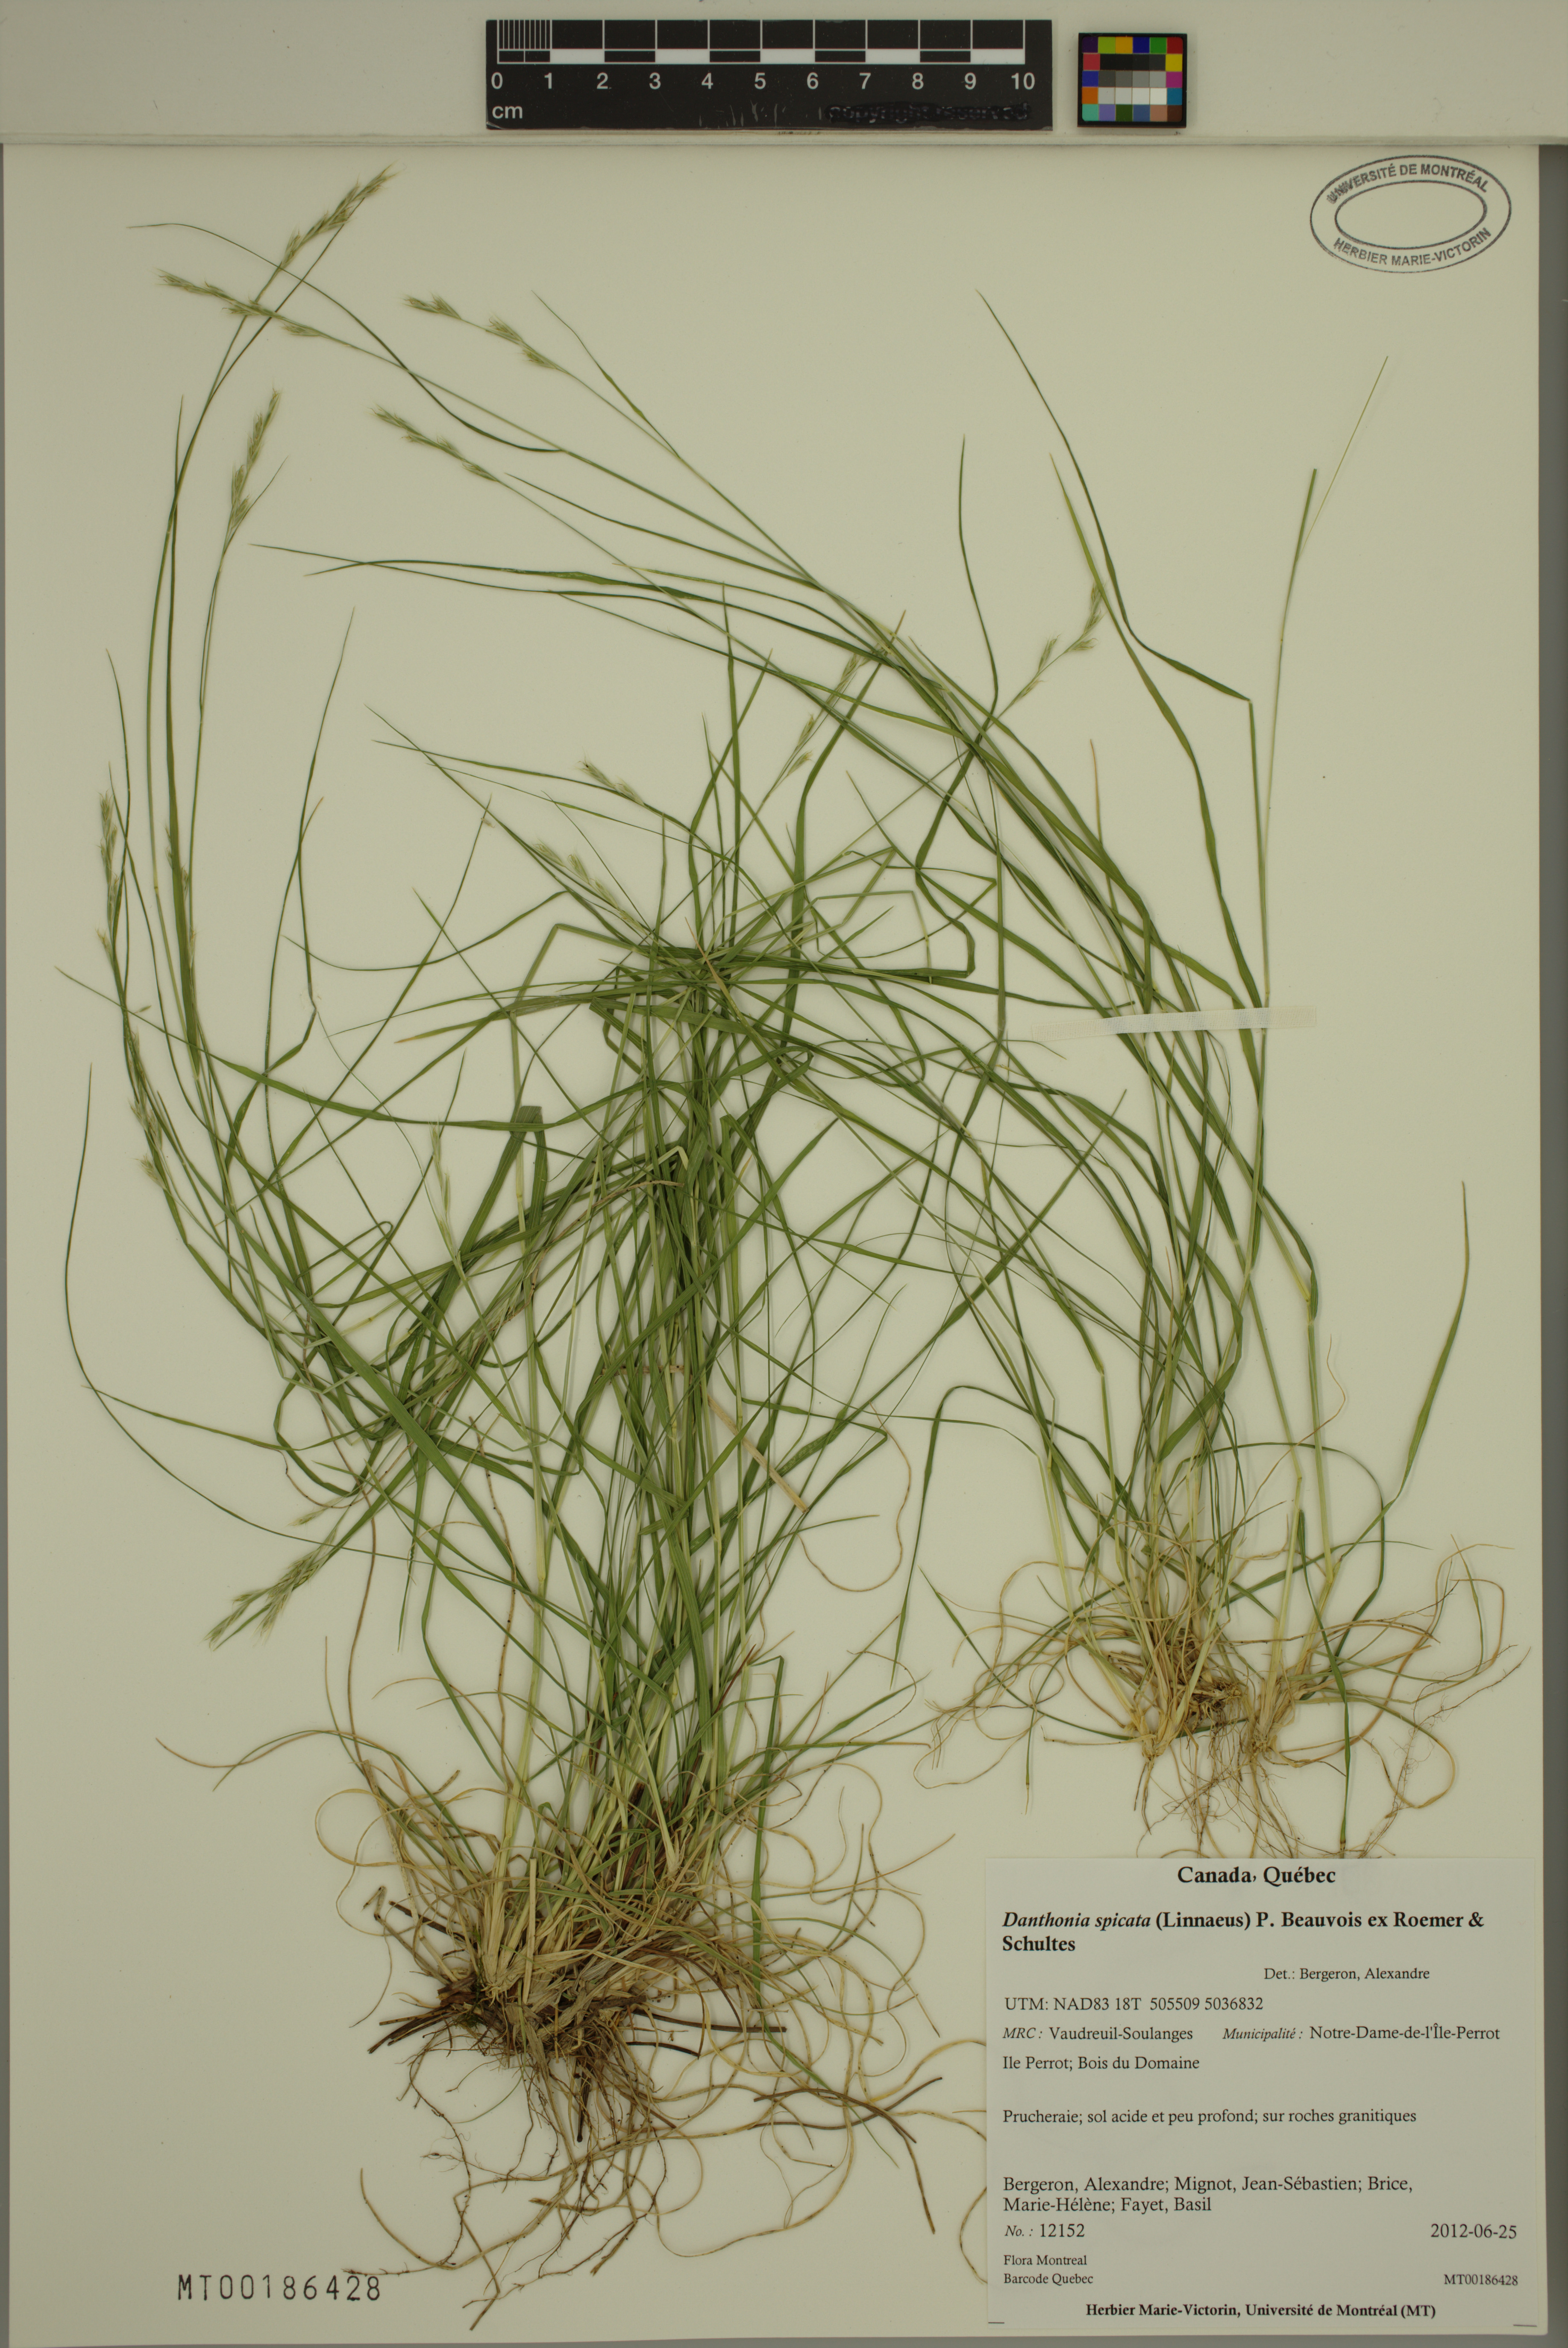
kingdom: Plantae
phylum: Tracheophyta
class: Liliopsida
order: Poales
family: Poaceae
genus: Danthonia
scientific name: Danthonia spicata
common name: Common wild oatgrass
